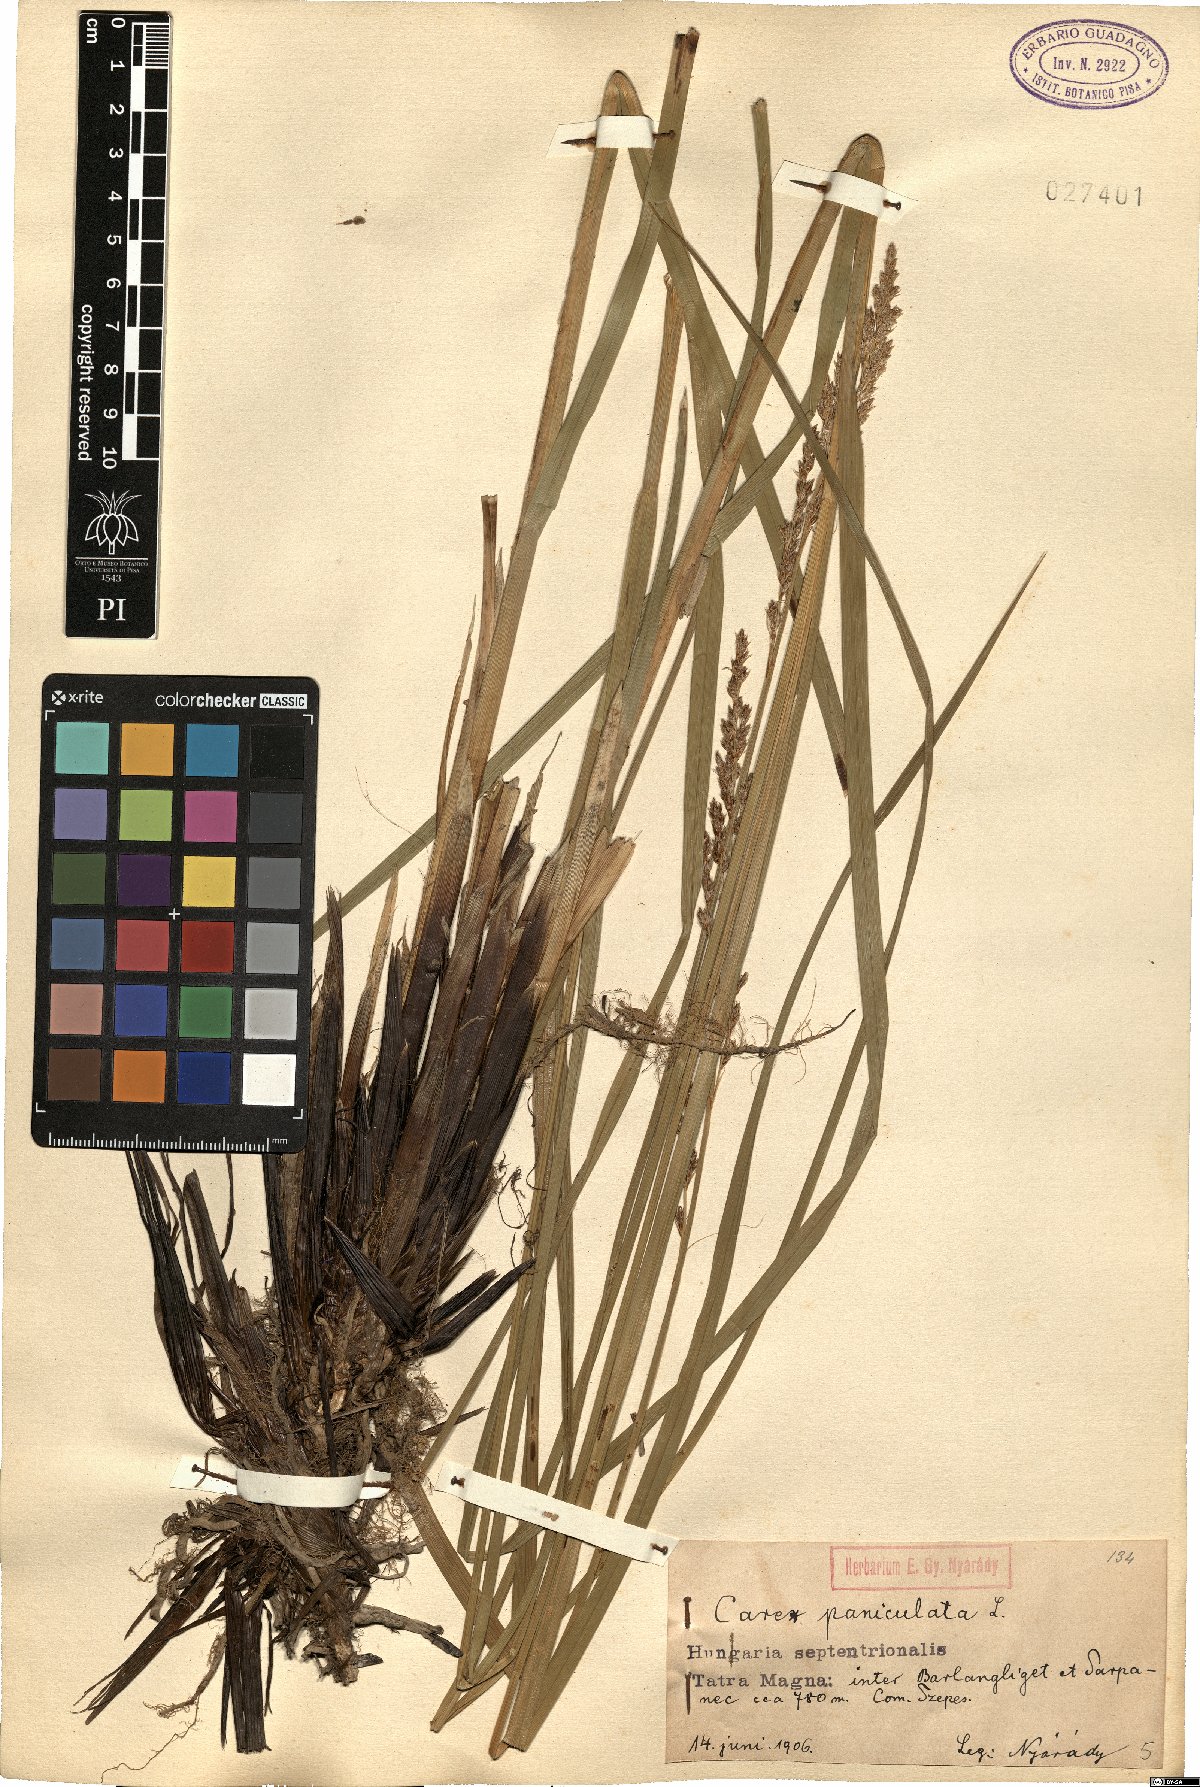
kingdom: Plantae
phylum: Tracheophyta
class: Liliopsida
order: Poales
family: Cyperaceae
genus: Carex
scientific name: Carex paniculata
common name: Greater tussock-sedge
